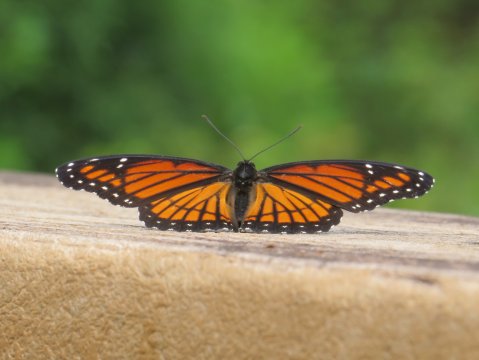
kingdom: Animalia
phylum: Arthropoda
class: Insecta
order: Lepidoptera
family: Nymphalidae
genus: Limenitis
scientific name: Limenitis archippus
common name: Viceroy
